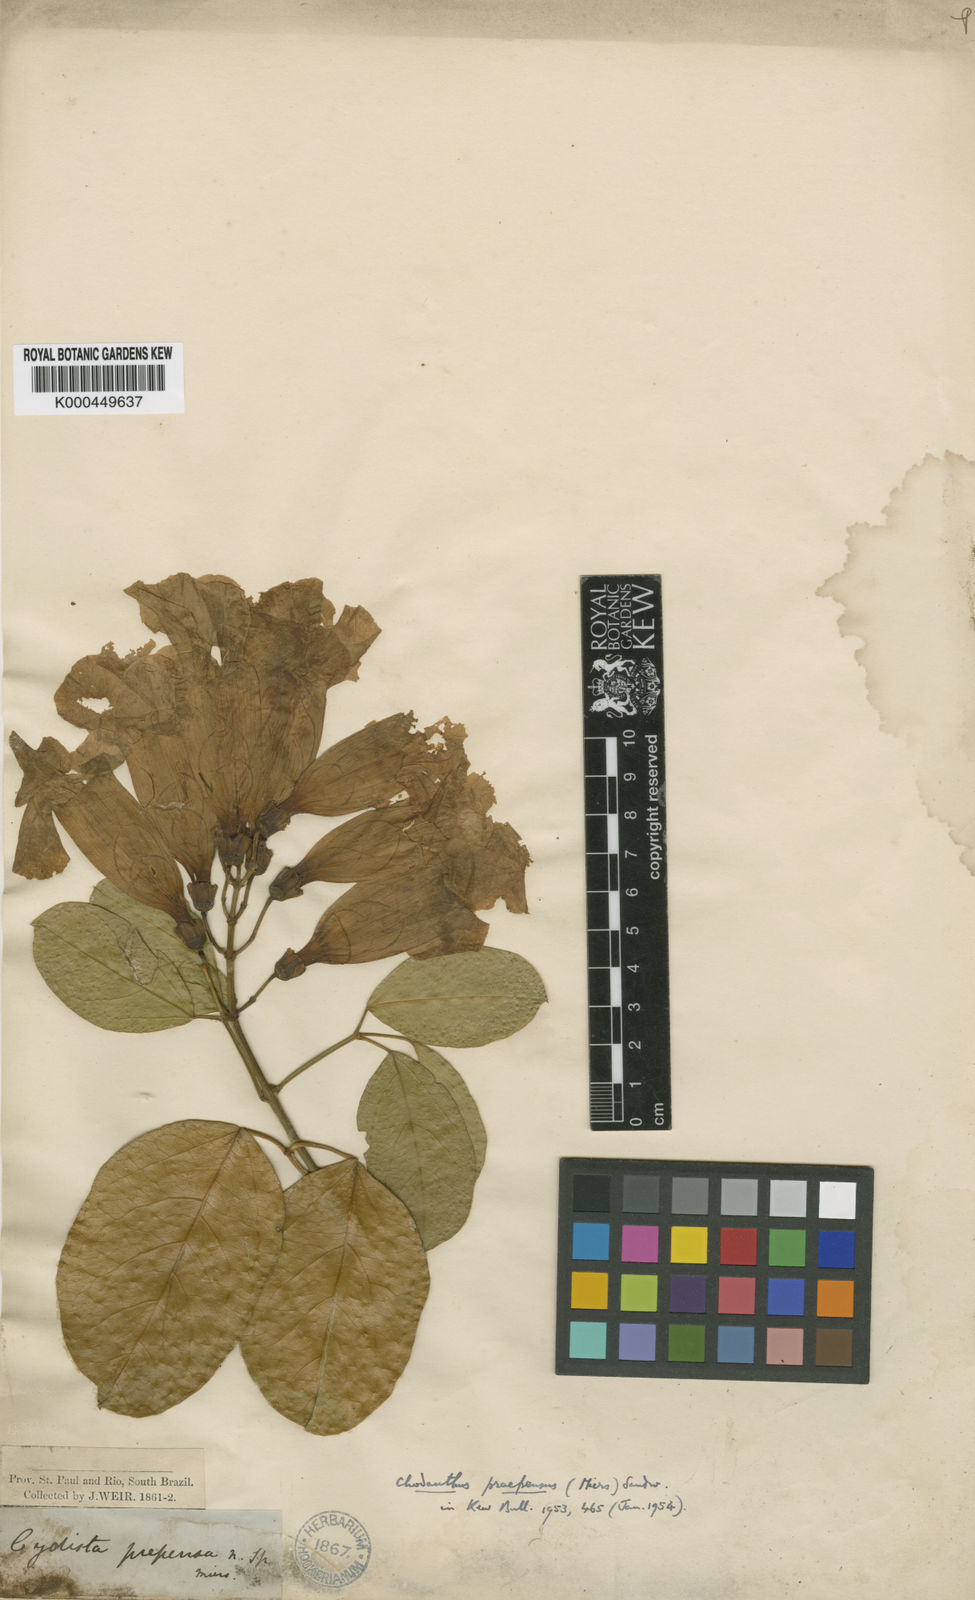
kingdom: Plantae
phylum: Tracheophyta
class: Magnoliopsida
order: Lamiales
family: Bignoniaceae
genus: Mansoa
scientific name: Mansoa difficilis
